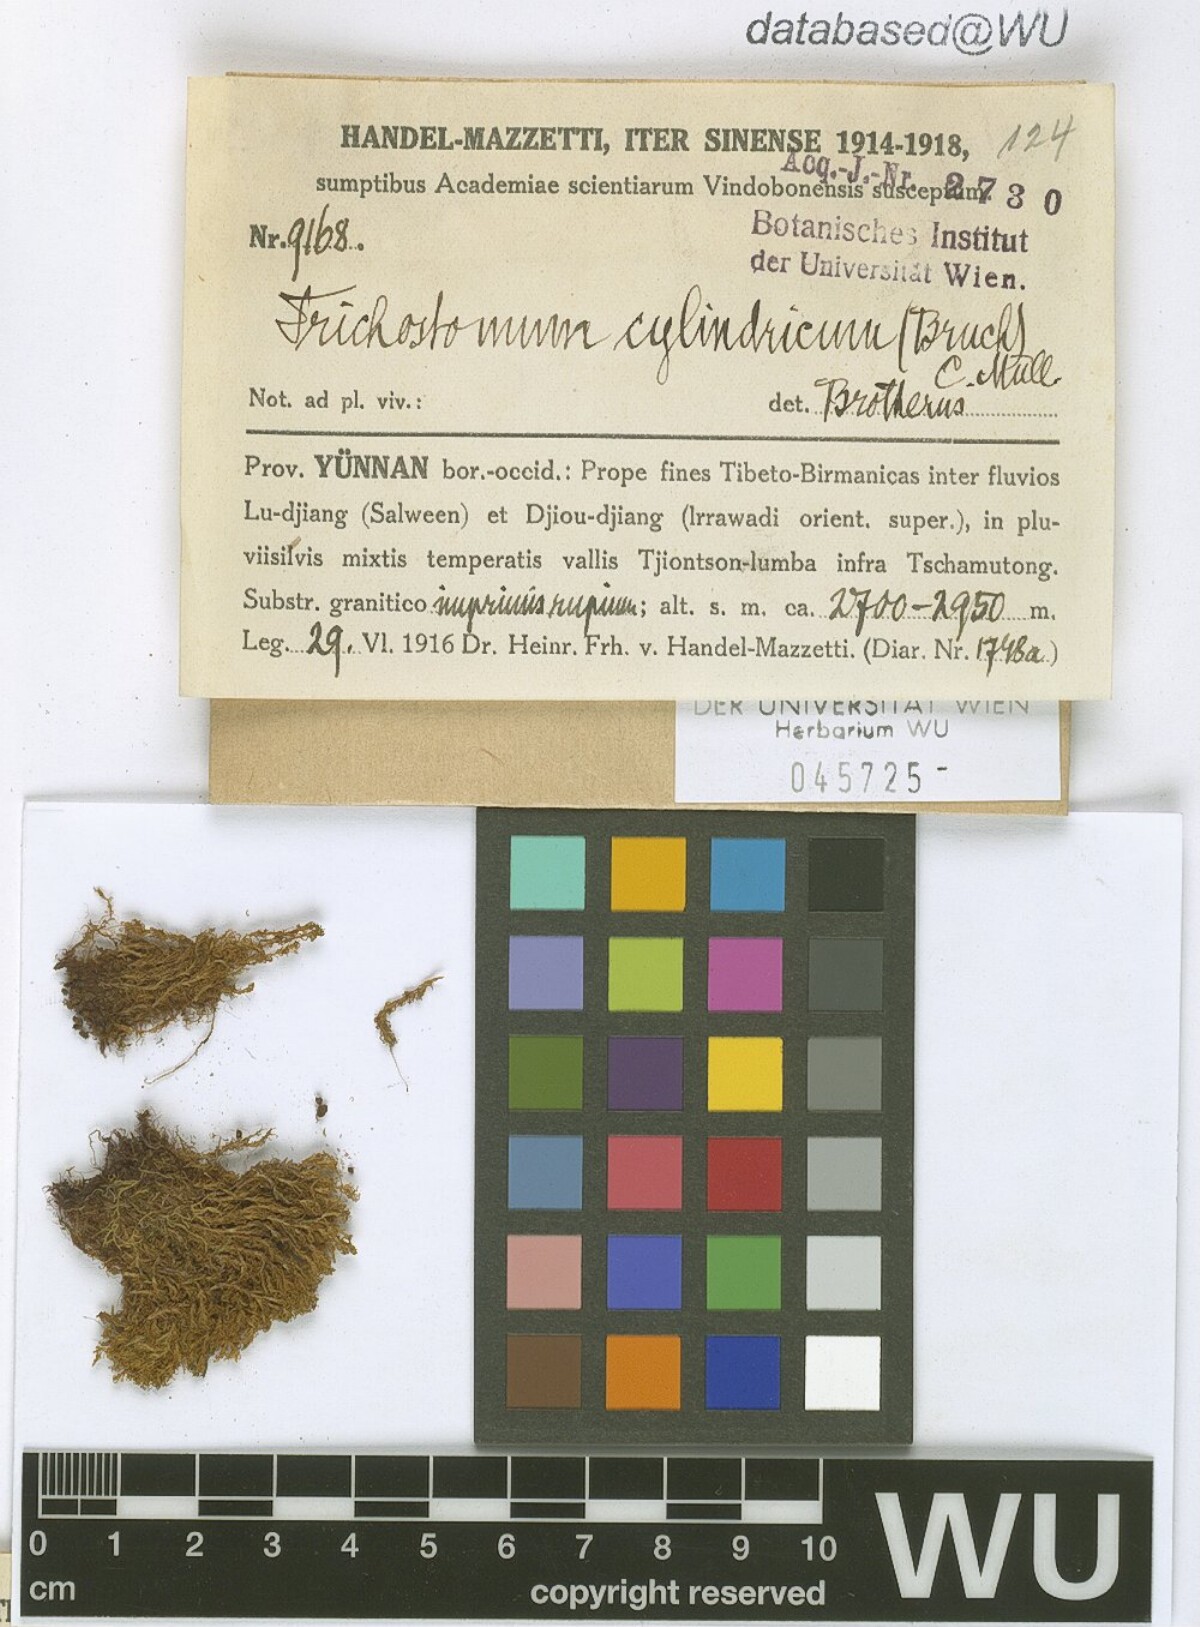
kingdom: Plantae
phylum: Bryophyta
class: Bryopsida
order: Pottiales
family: Pottiaceae
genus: Chionoloma
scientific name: Chionoloma tenuirostre
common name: Narrow-fruited crisp-moss
